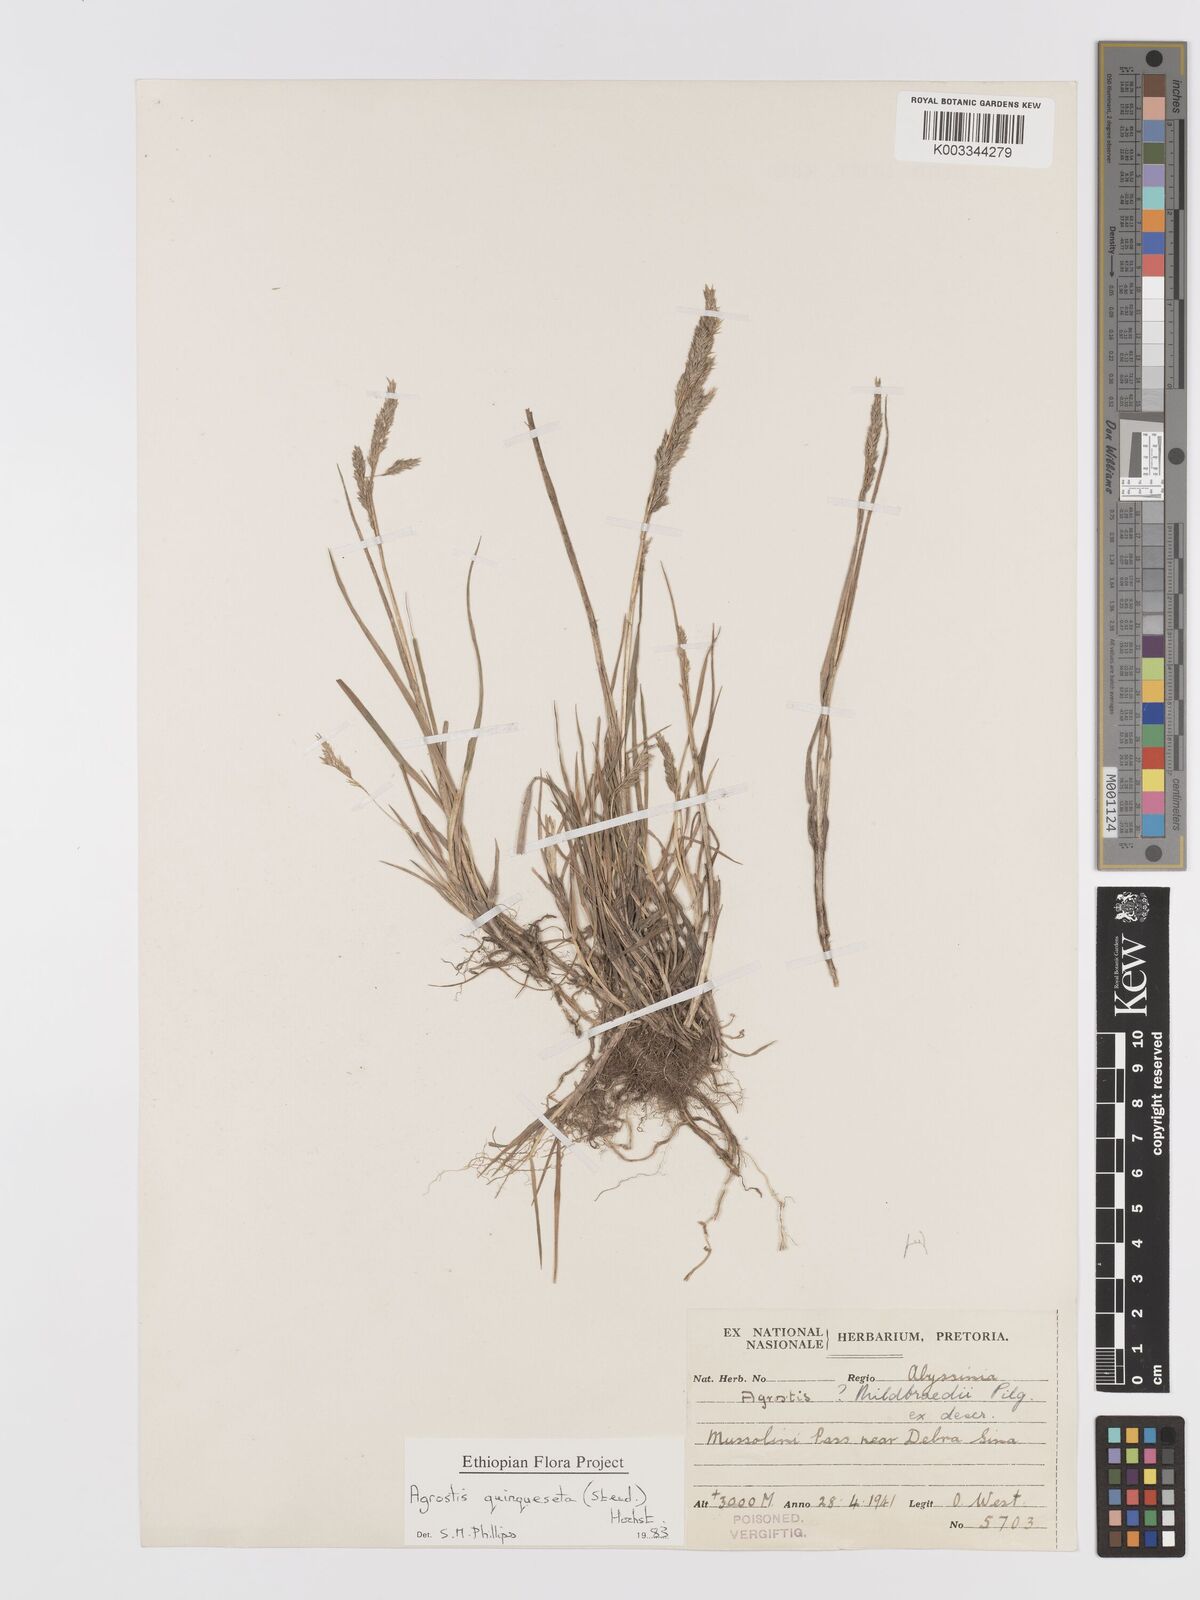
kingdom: Plantae
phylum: Tracheophyta
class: Liliopsida
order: Poales
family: Poaceae
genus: Agrostis
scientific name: Agrostis quinqueseta
